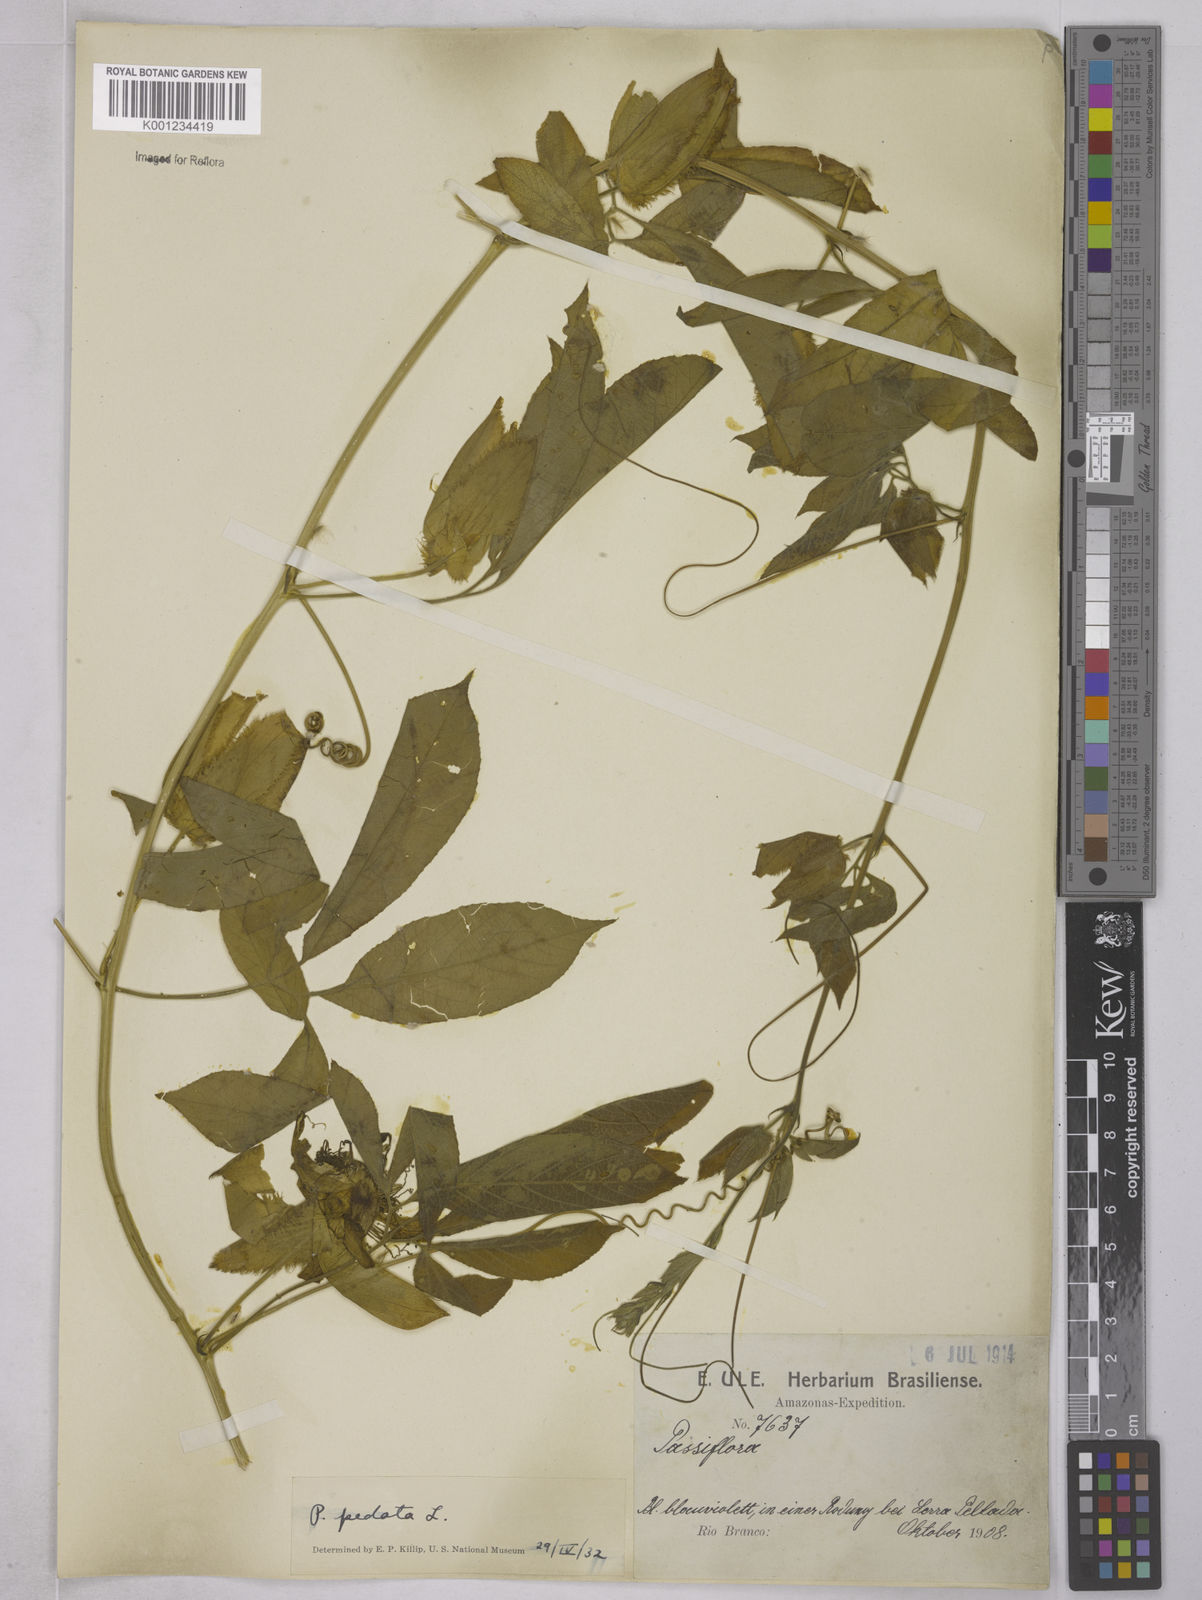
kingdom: Plantae
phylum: Tracheophyta
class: Magnoliopsida
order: Malpighiales
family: Passifloraceae
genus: Passiflora
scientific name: Passiflora pedata
